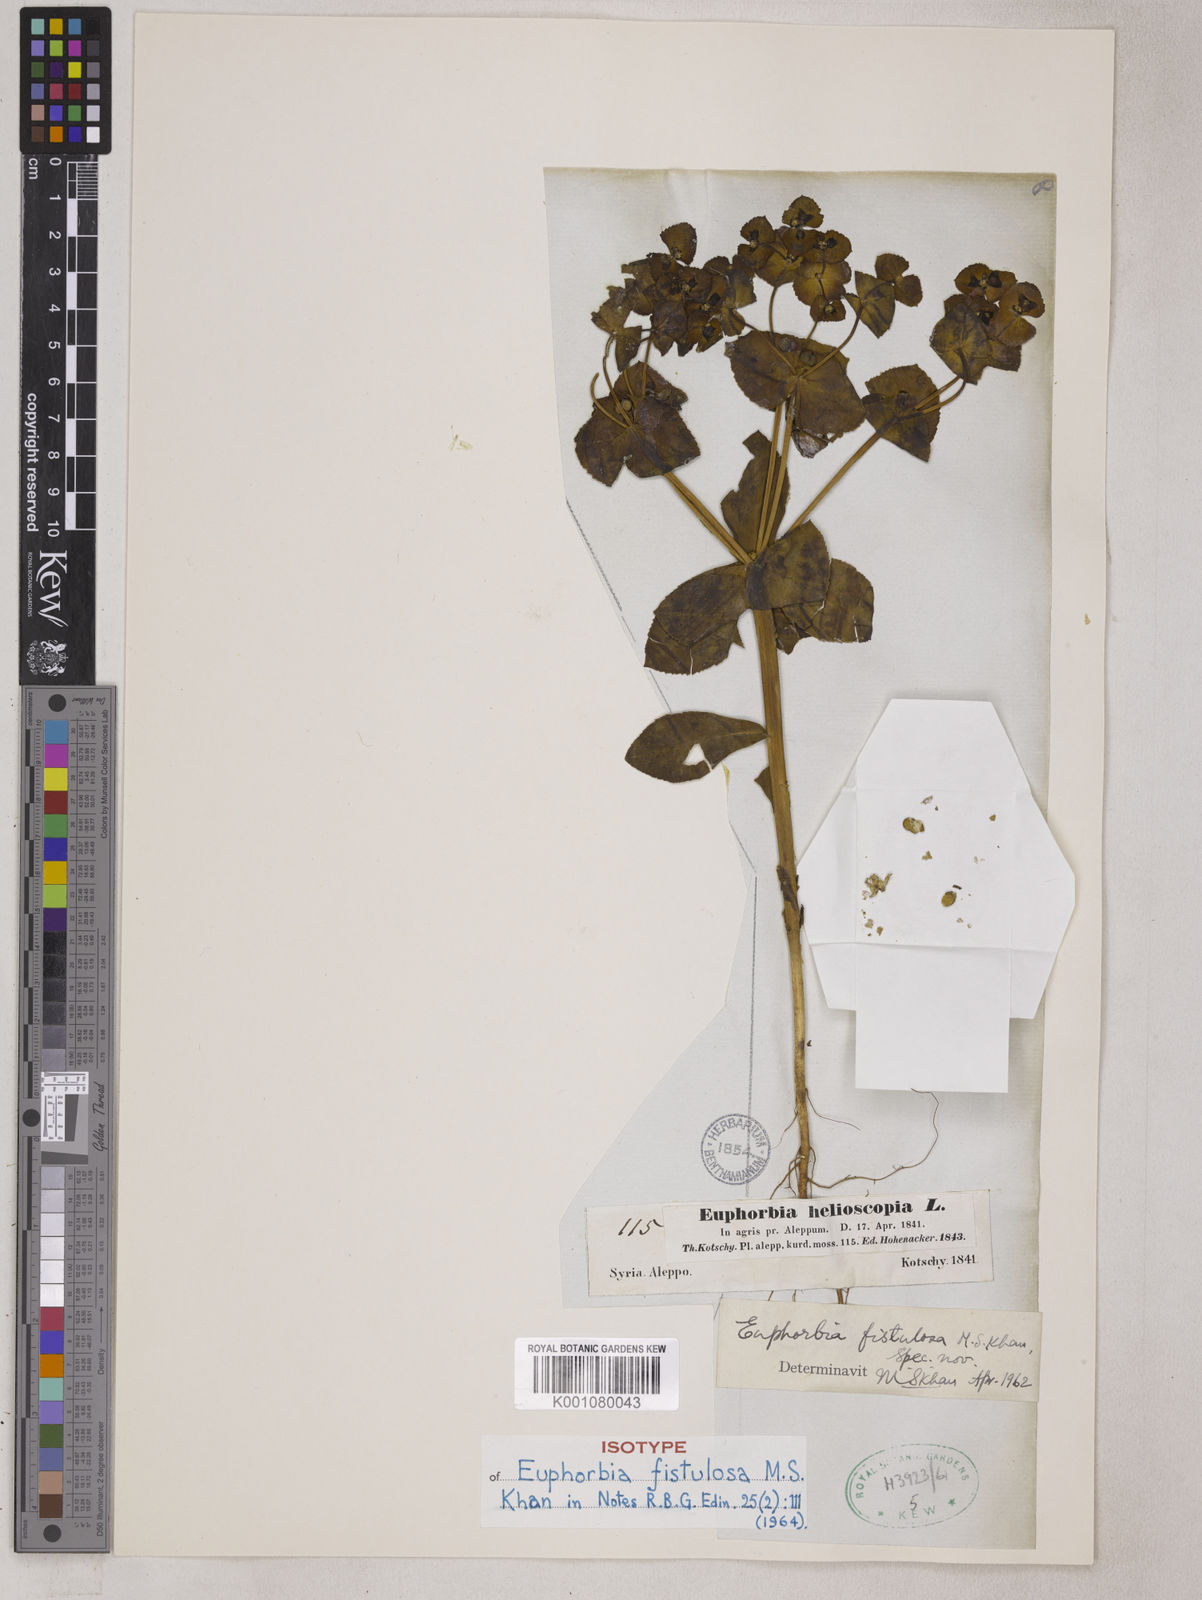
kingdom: Plantae
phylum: Tracheophyta
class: Magnoliopsida
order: Malpighiales
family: Euphorbiaceae
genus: Euphorbia
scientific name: Euphorbia fistulosa
